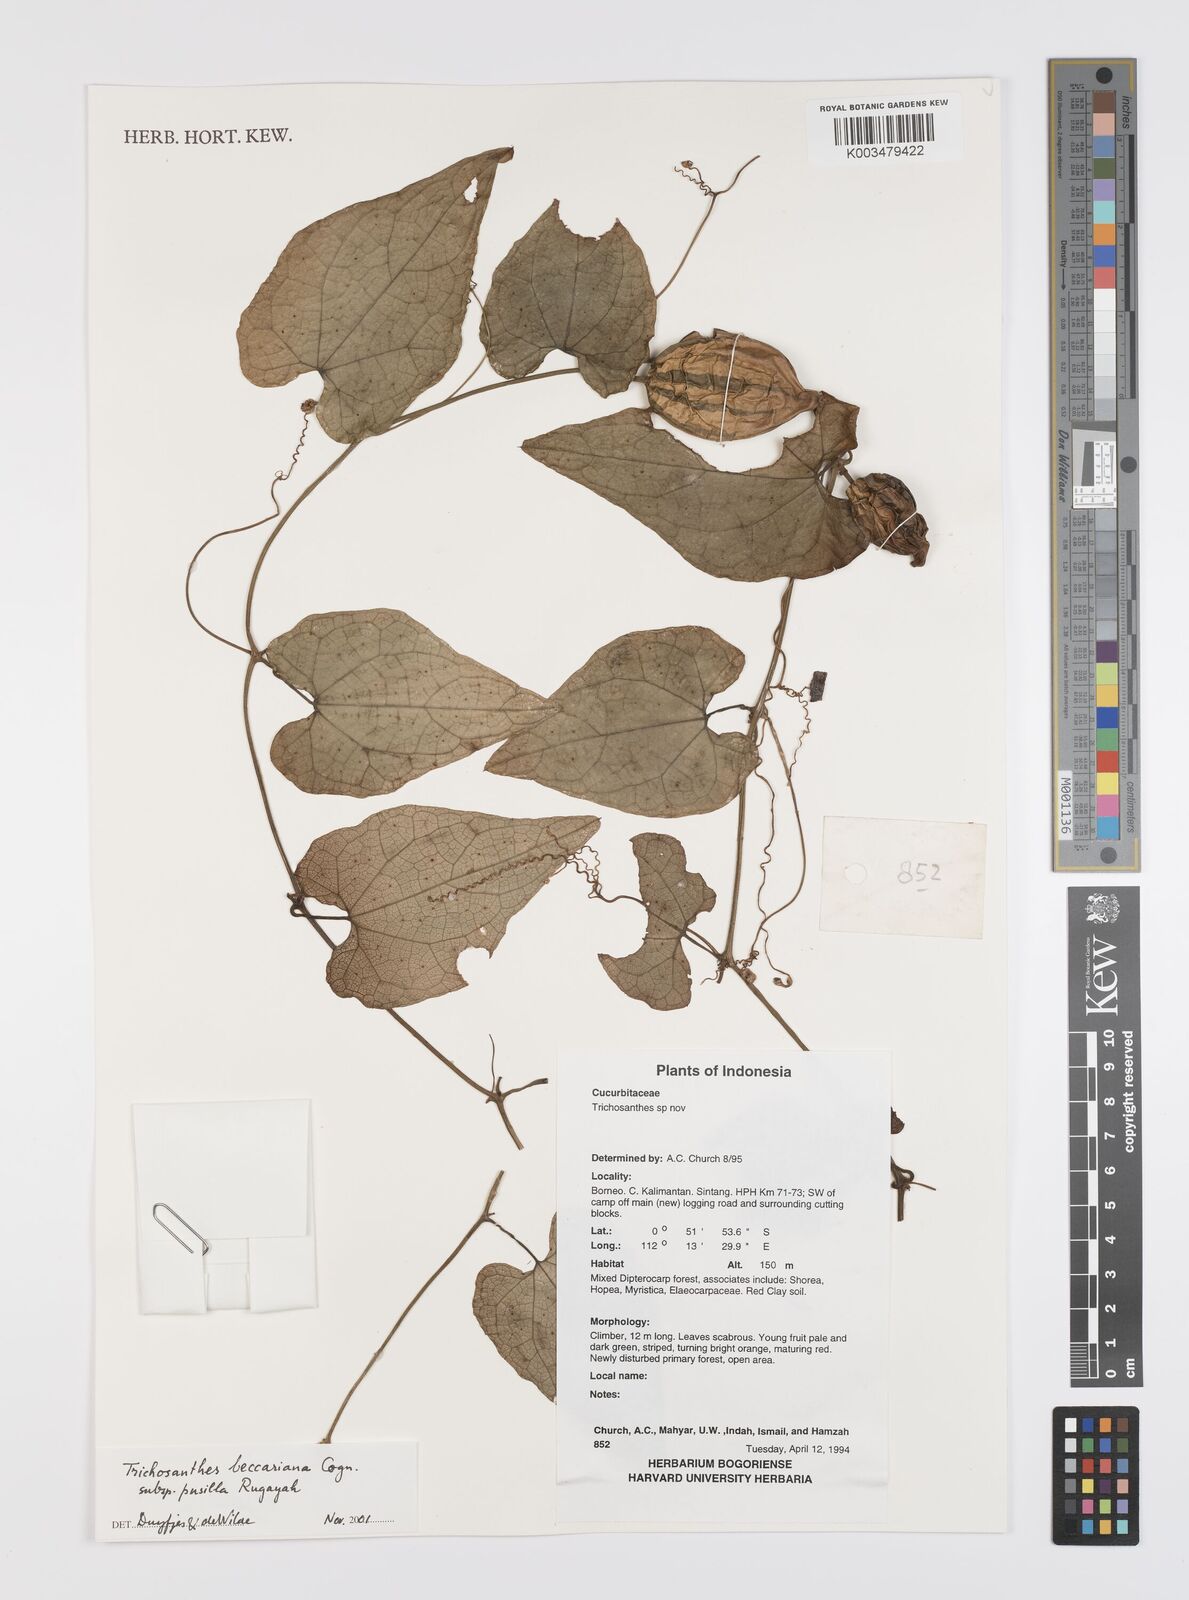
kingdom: Plantae
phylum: Tracheophyta
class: Magnoliopsida
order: Cucurbitales
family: Cucurbitaceae
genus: Trichosanthes
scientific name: Trichosanthes beccariana
